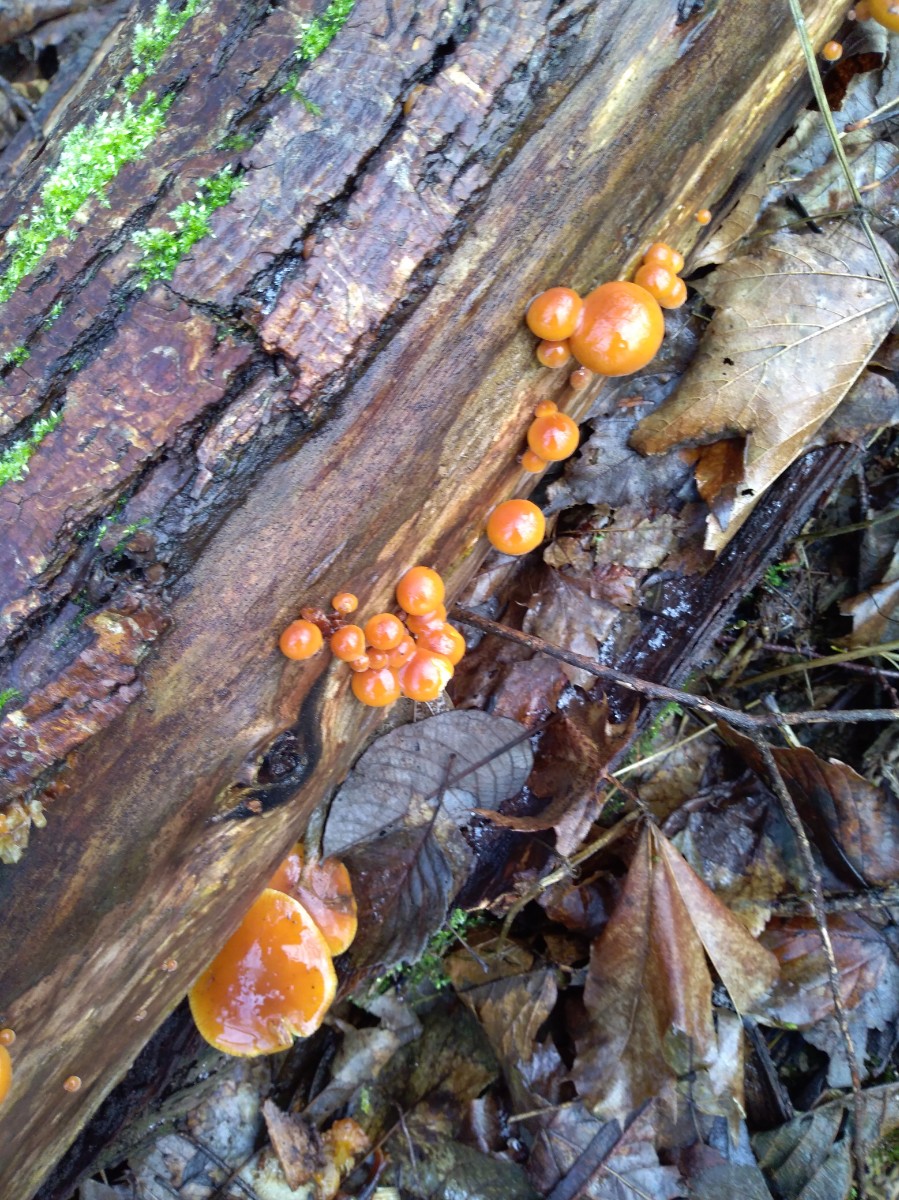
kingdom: Fungi
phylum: Basidiomycota
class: Agaricomycetes
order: Agaricales
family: Physalacriaceae
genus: Flammulina
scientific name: Flammulina
